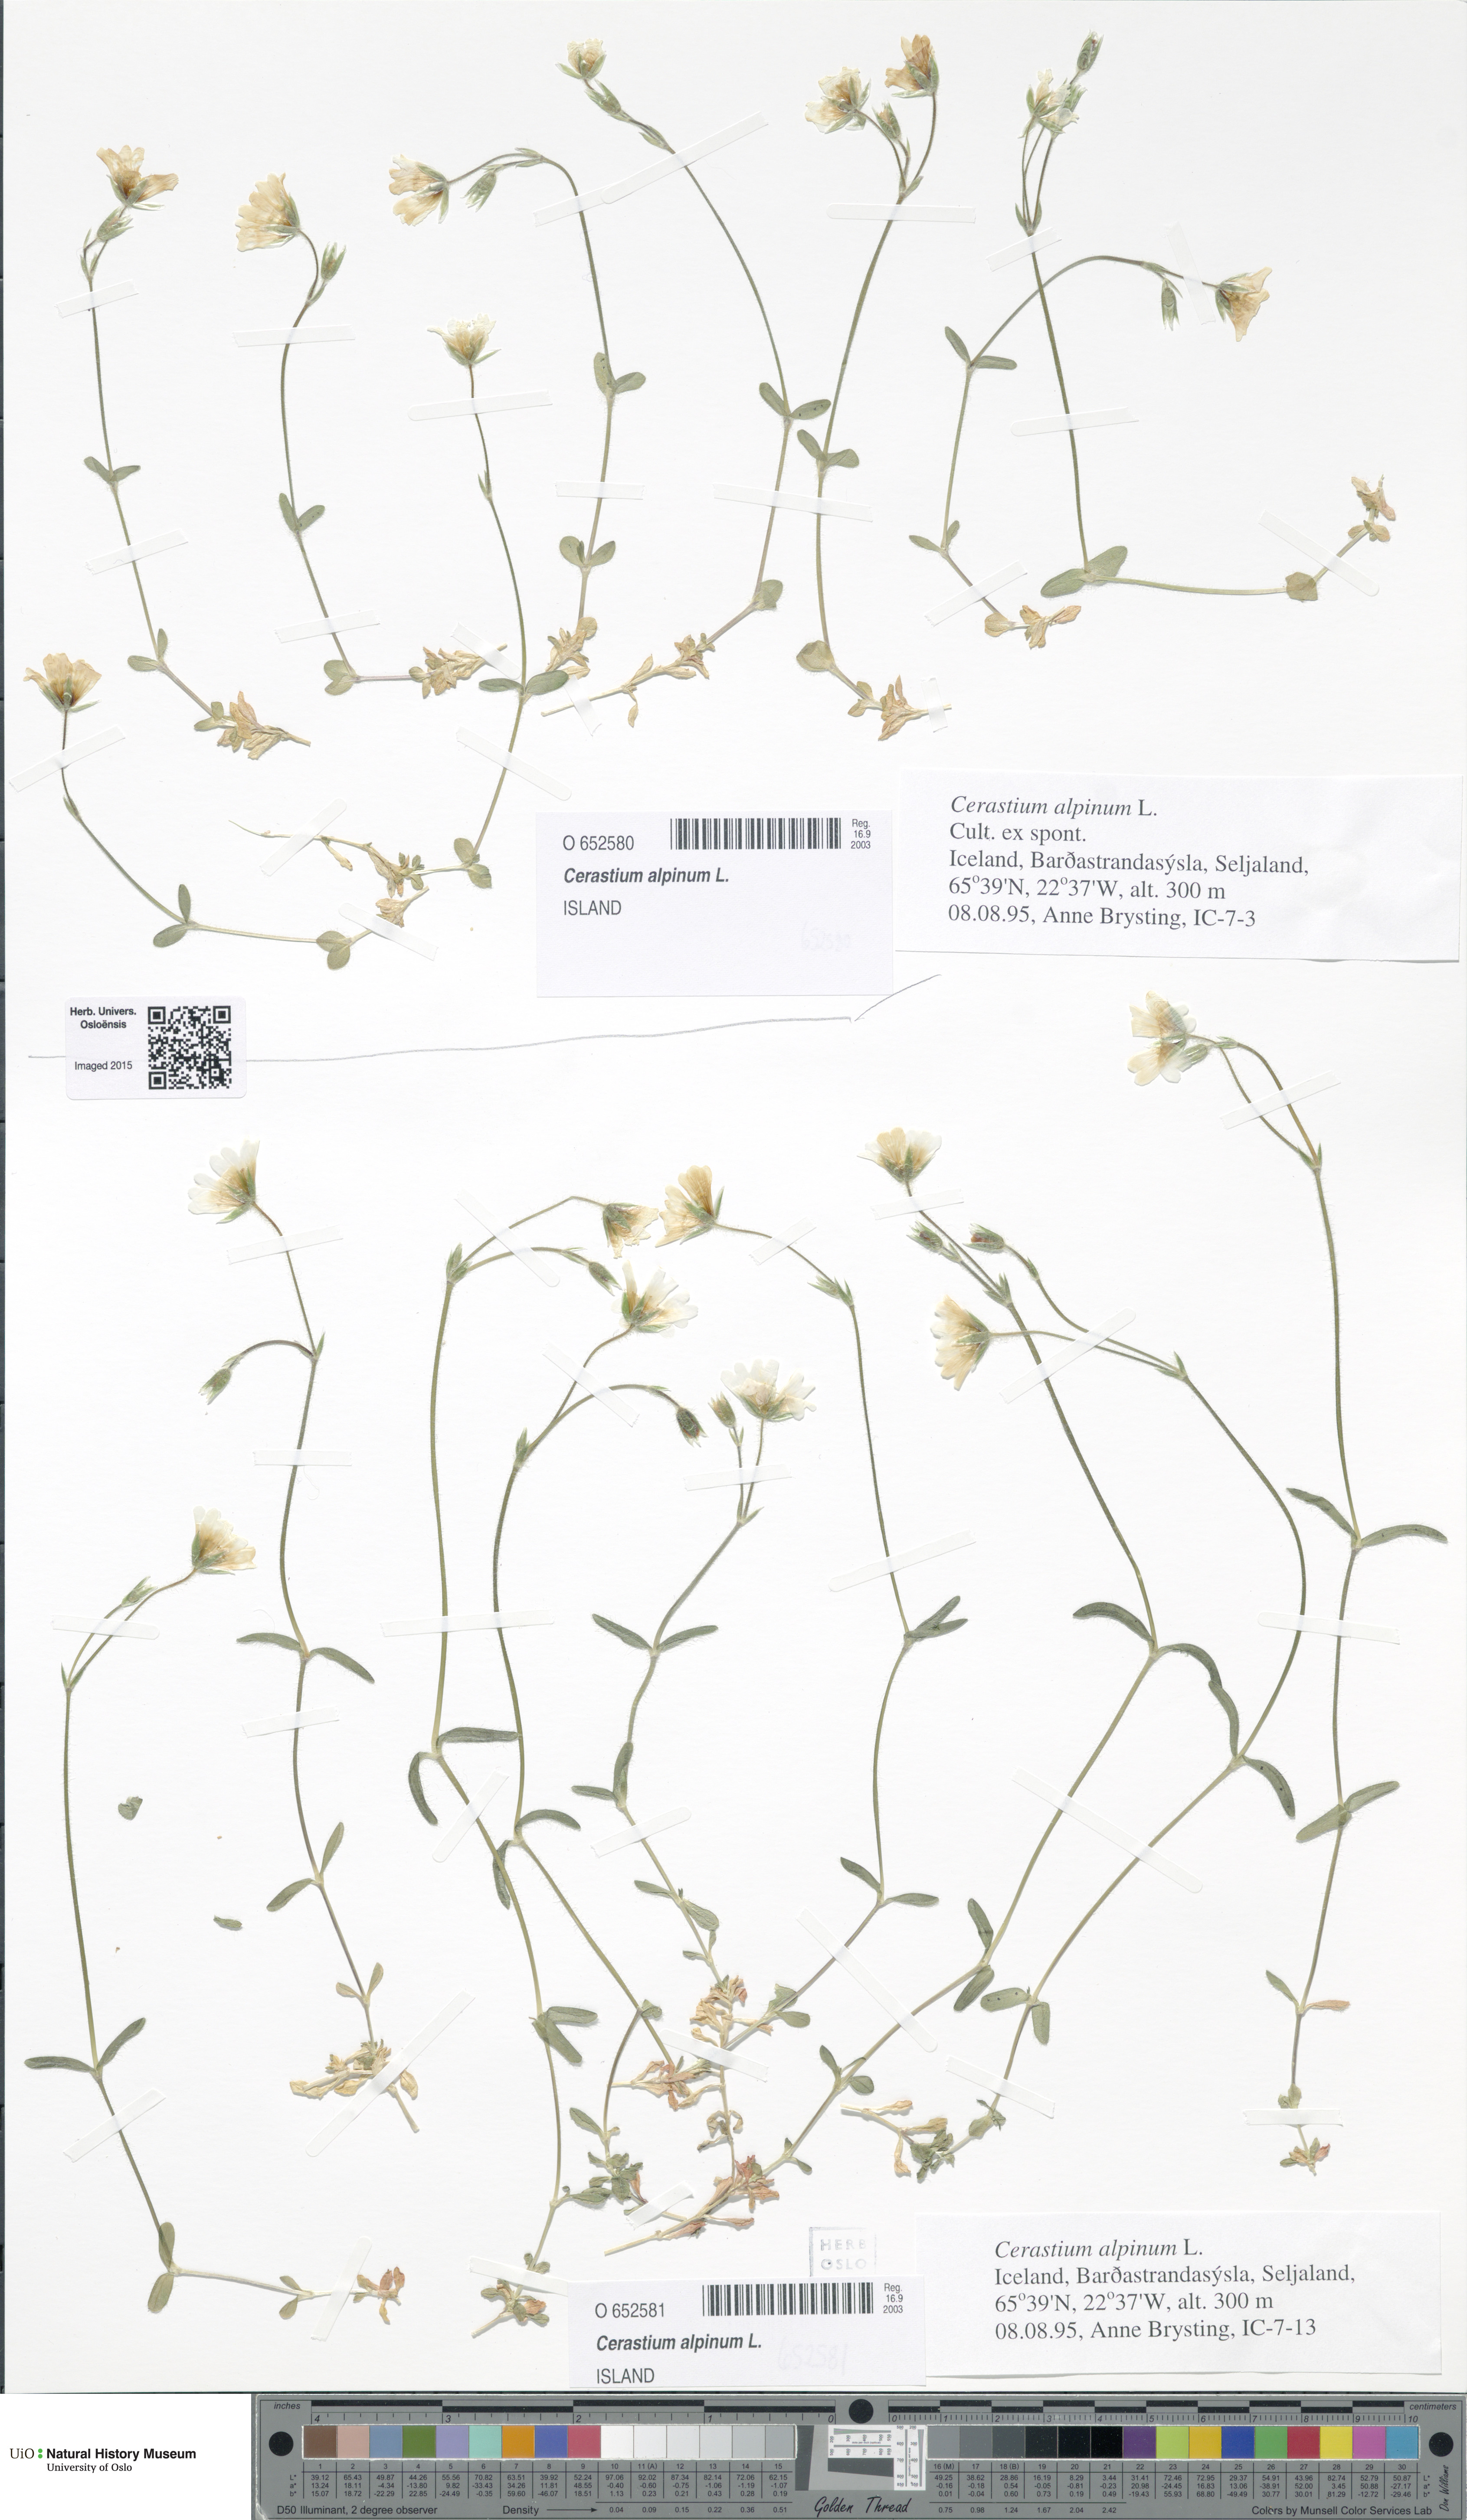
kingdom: Plantae
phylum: Tracheophyta
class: Magnoliopsida
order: Caryophyllales
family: Caryophyllaceae
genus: Cerastium
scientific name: Cerastium alpinum
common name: Alpine mouse-ear
